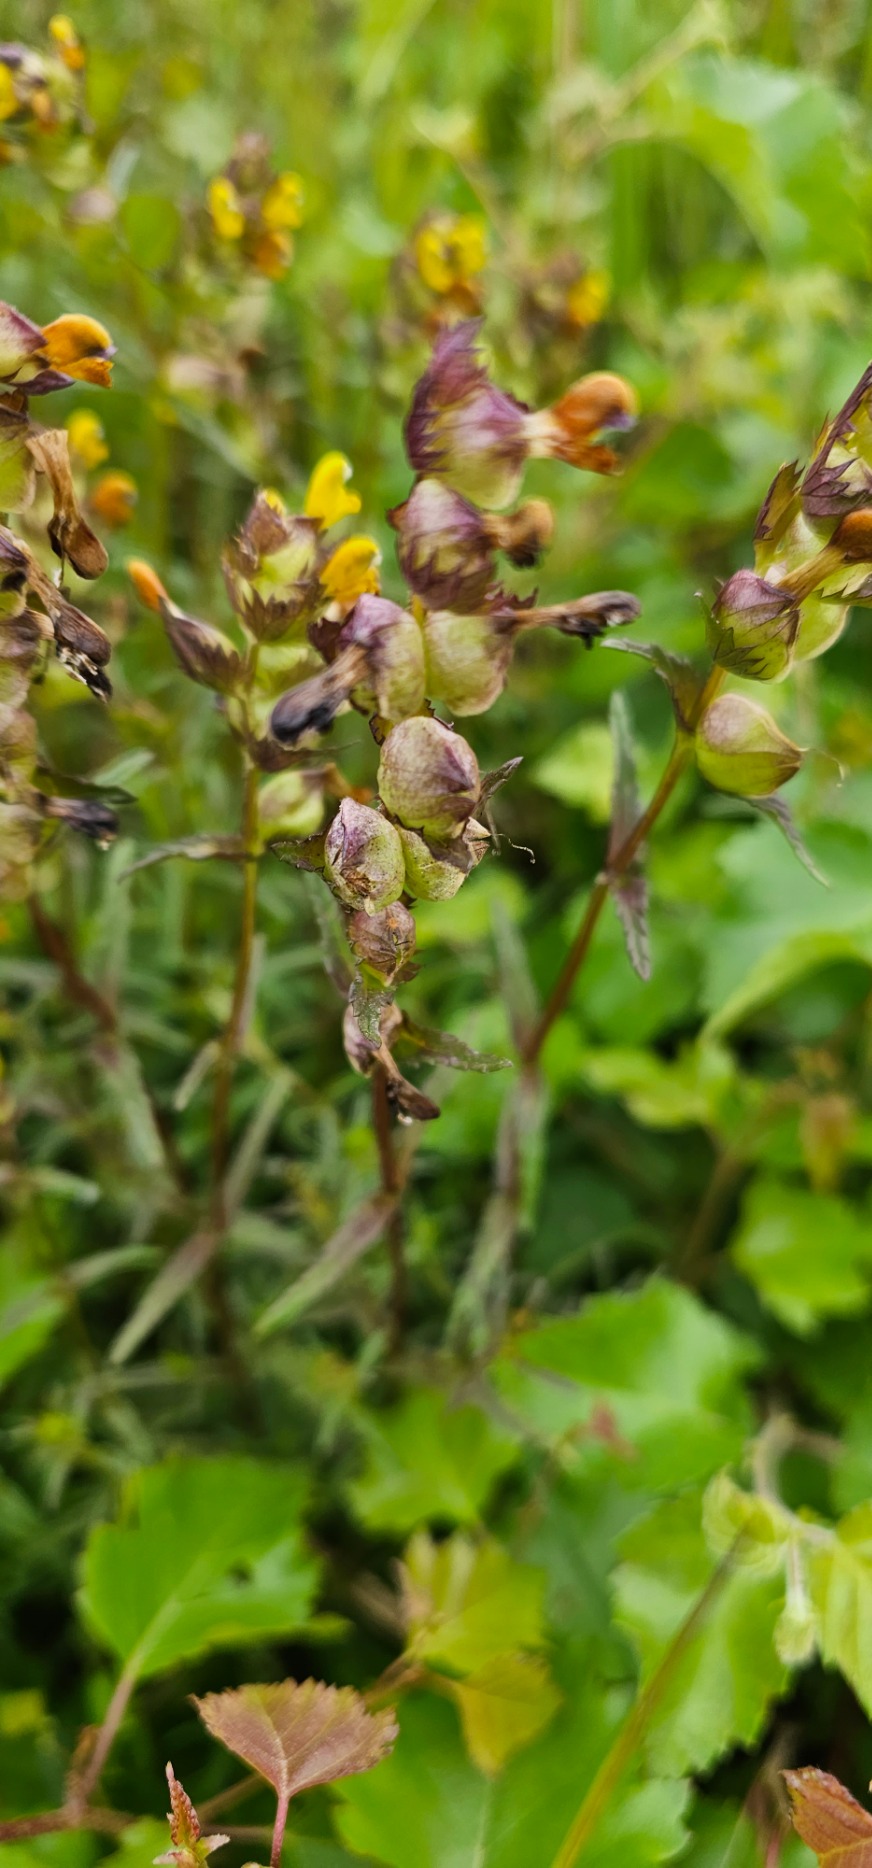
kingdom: Plantae
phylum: Tracheophyta
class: Magnoliopsida
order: Lamiales
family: Orobanchaceae
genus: Rhinanthus
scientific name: Rhinanthus minor
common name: Liden skjaller
